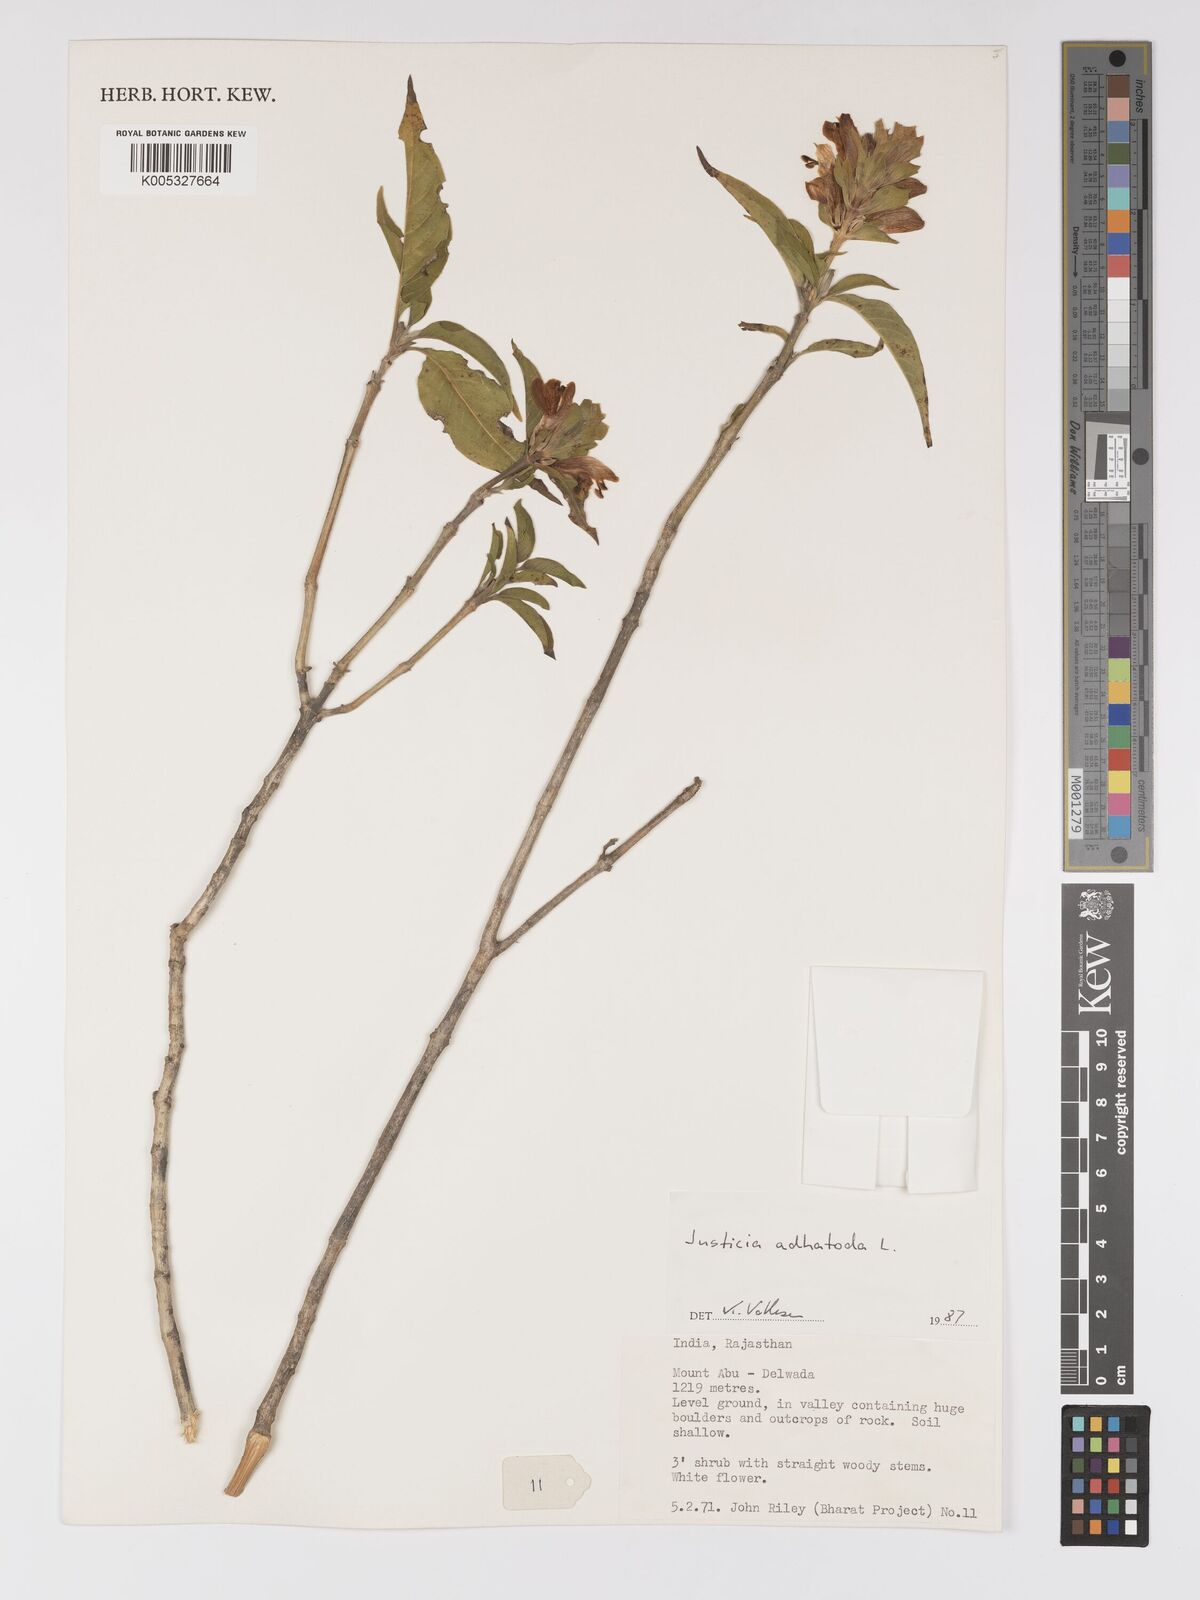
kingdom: Plantae
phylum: Tracheophyta
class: Magnoliopsida
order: Lamiales
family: Acanthaceae
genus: Ecbolium
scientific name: Ecbolium ligustrinum
